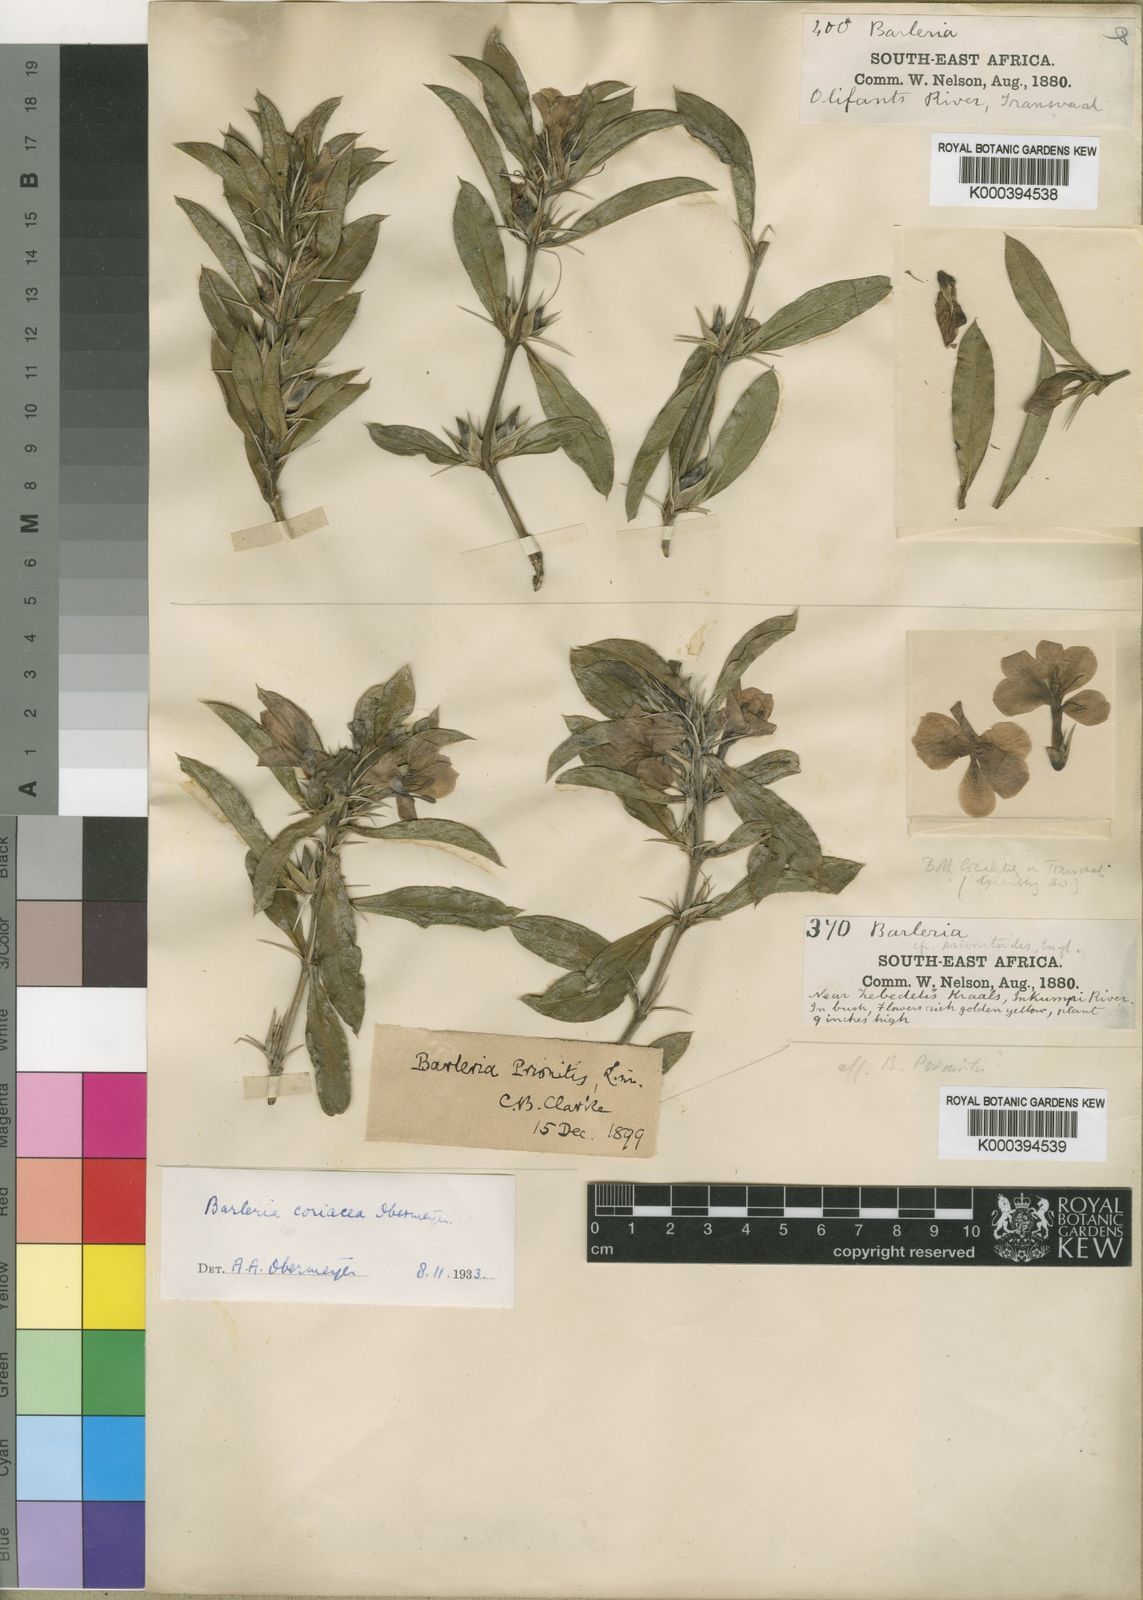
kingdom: Plantae
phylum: Tracheophyta
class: Magnoliopsida
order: Lamiales
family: Acanthaceae
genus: Barleria
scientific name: Barleria coriacea
